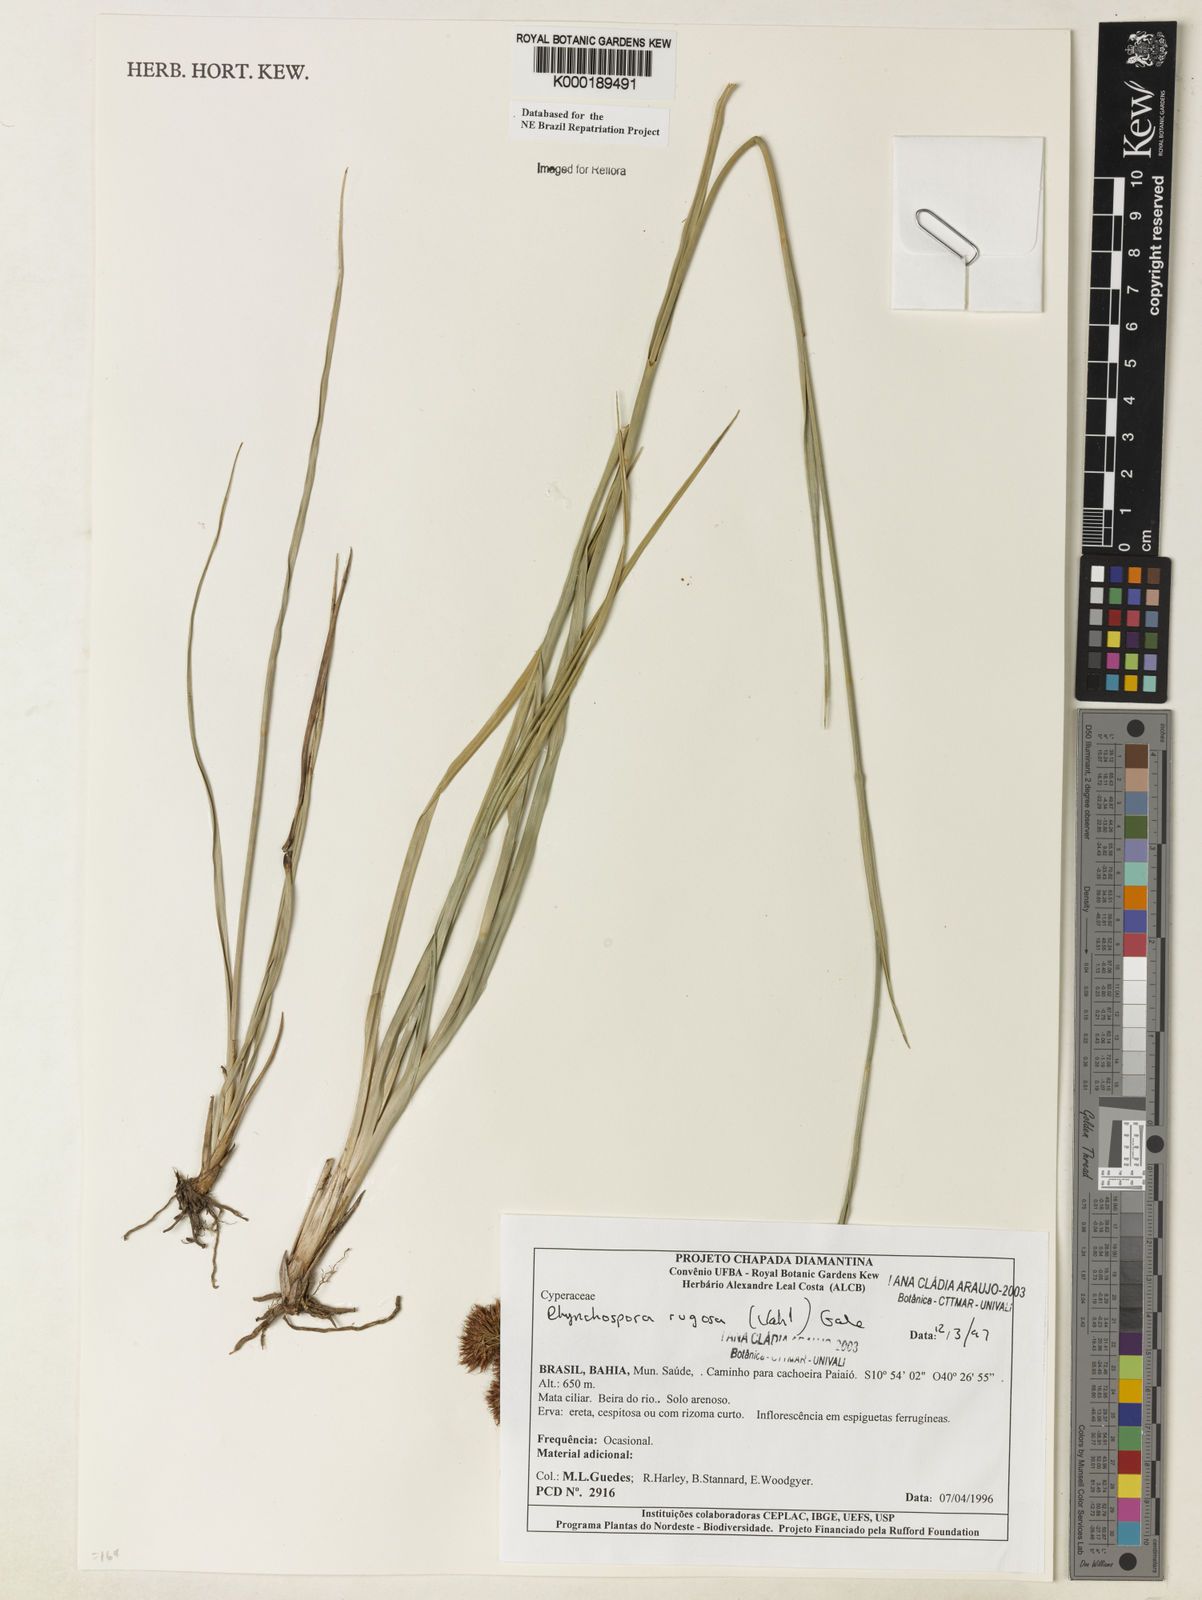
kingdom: Plantae
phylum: Tracheophyta
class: Liliopsida
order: Poales
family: Cyperaceae
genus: Rhynchospora
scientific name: Rhynchospora rugosa
